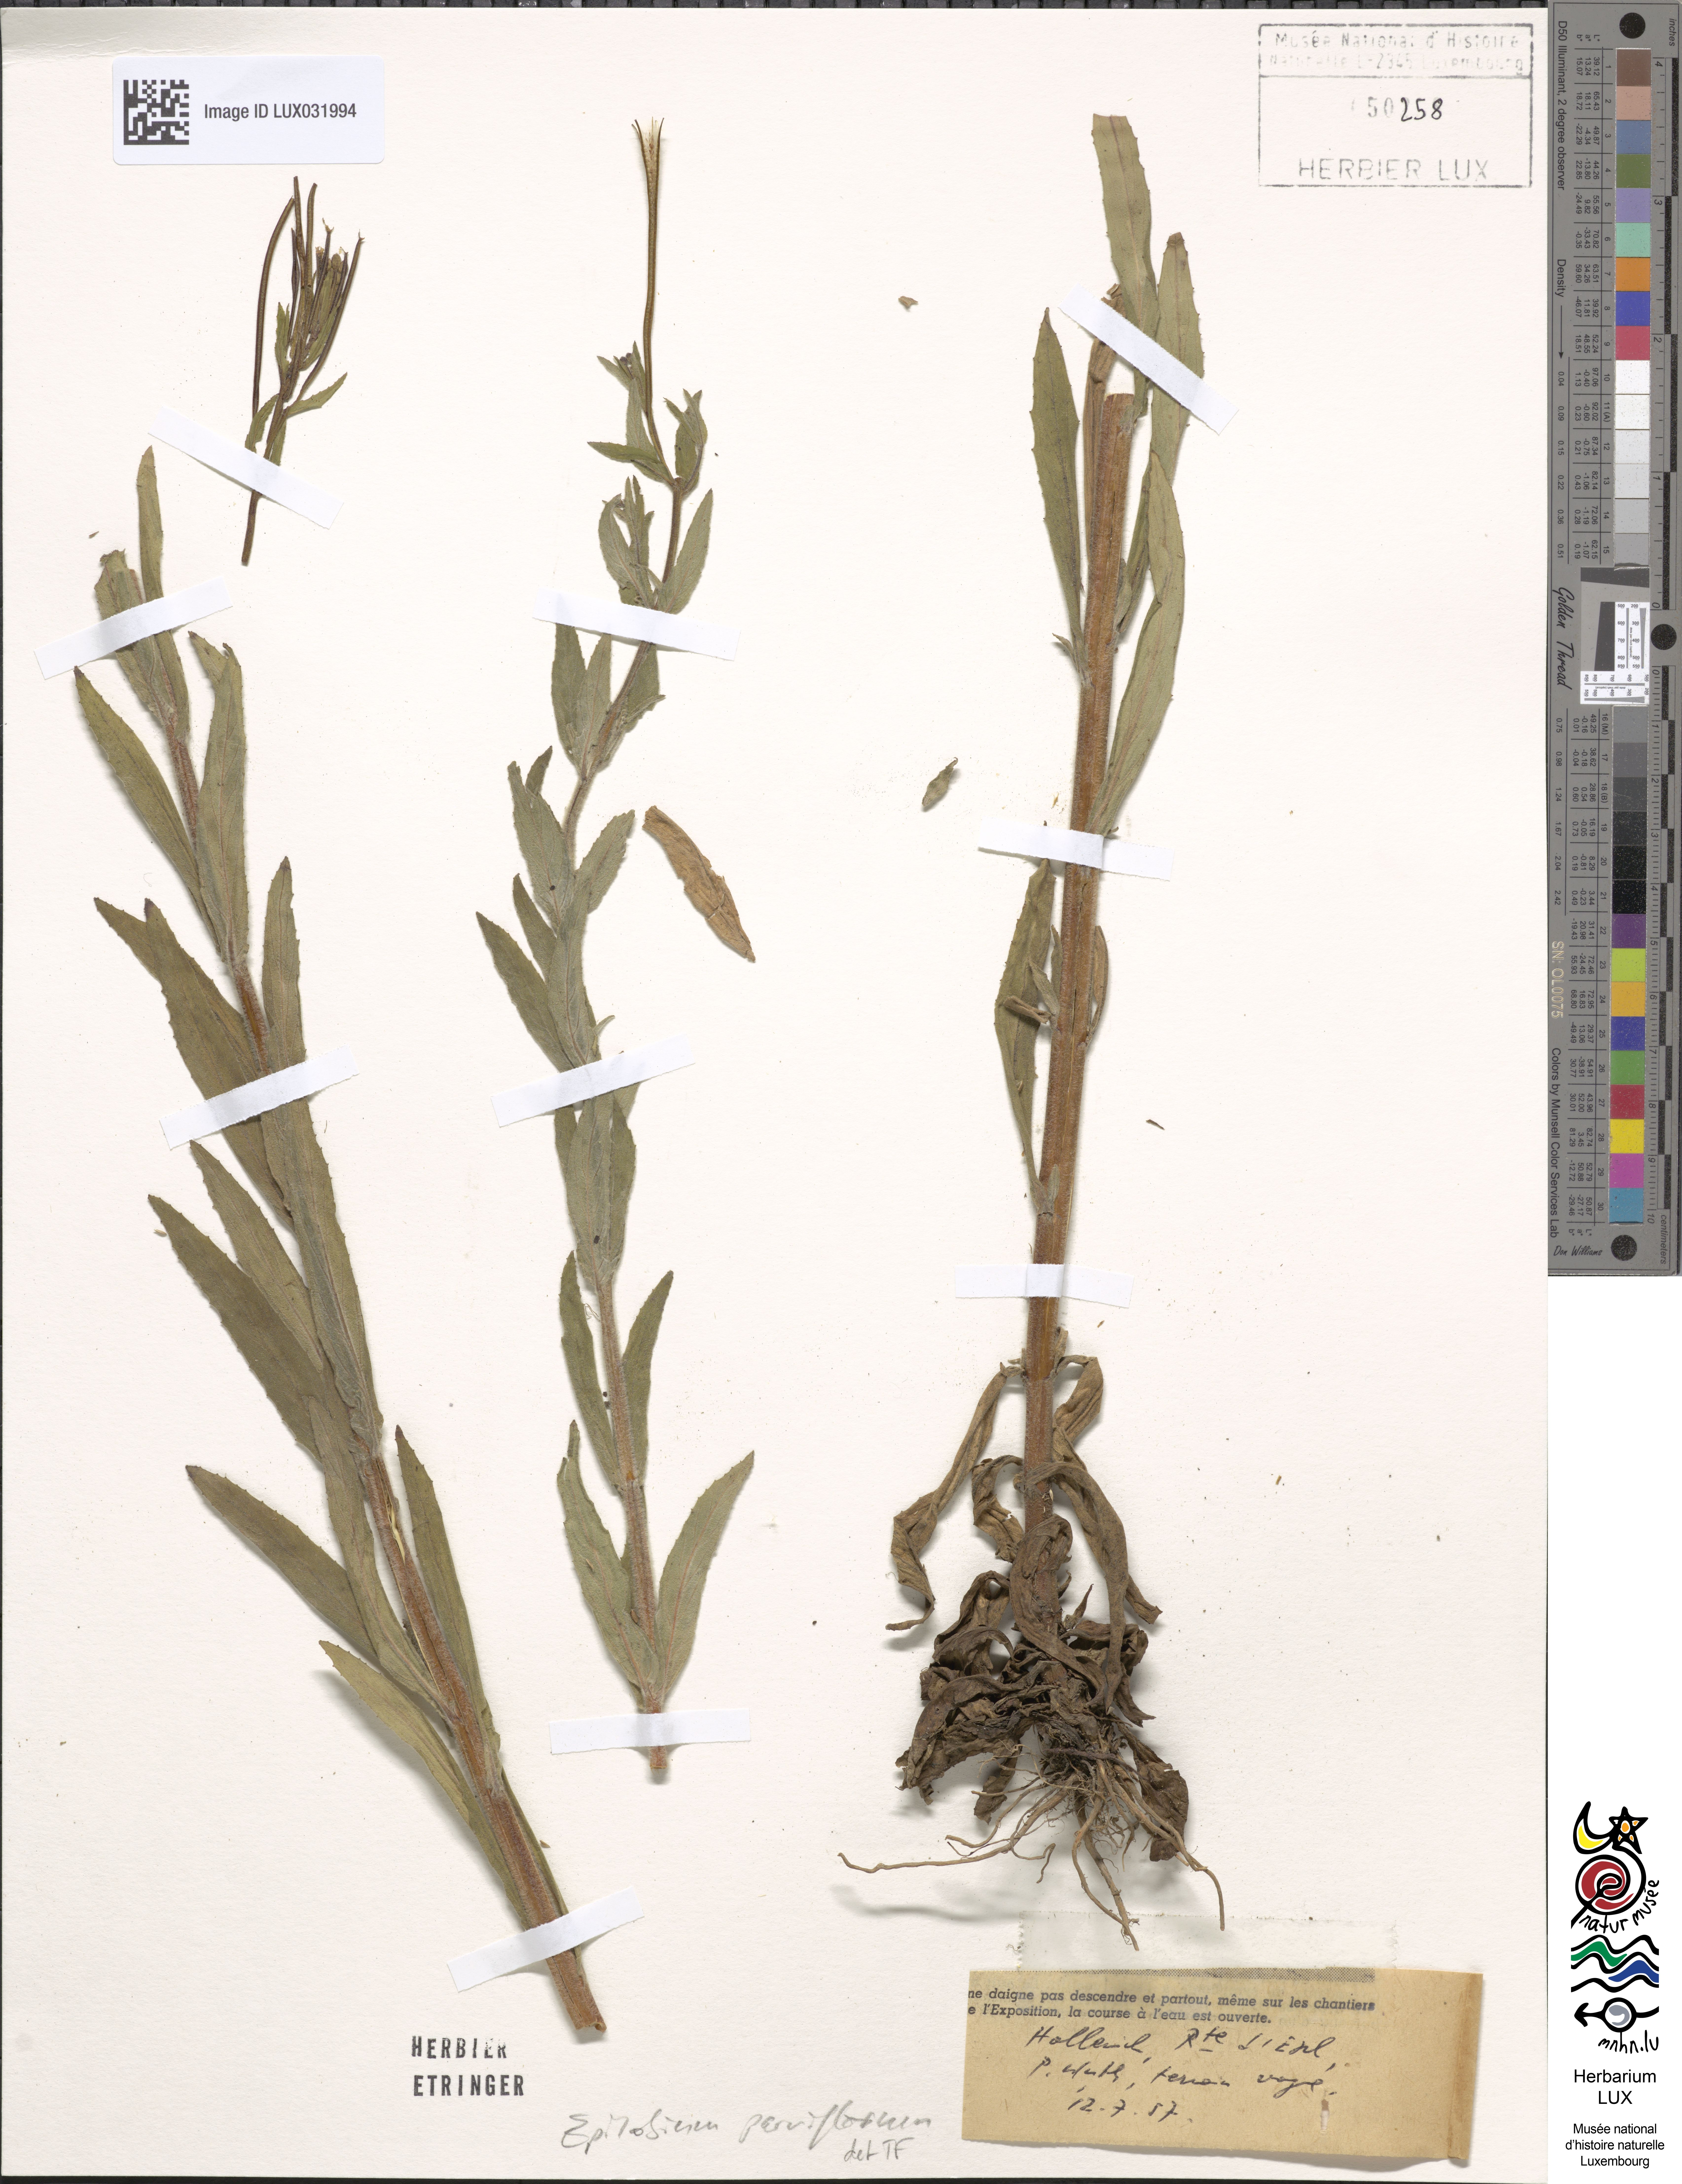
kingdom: Plantae
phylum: Tracheophyta
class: Magnoliopsida
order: Myrtales
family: Onagraceae
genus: Epilobium
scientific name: Epilobium parviflorum
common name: Hoary willowherb
